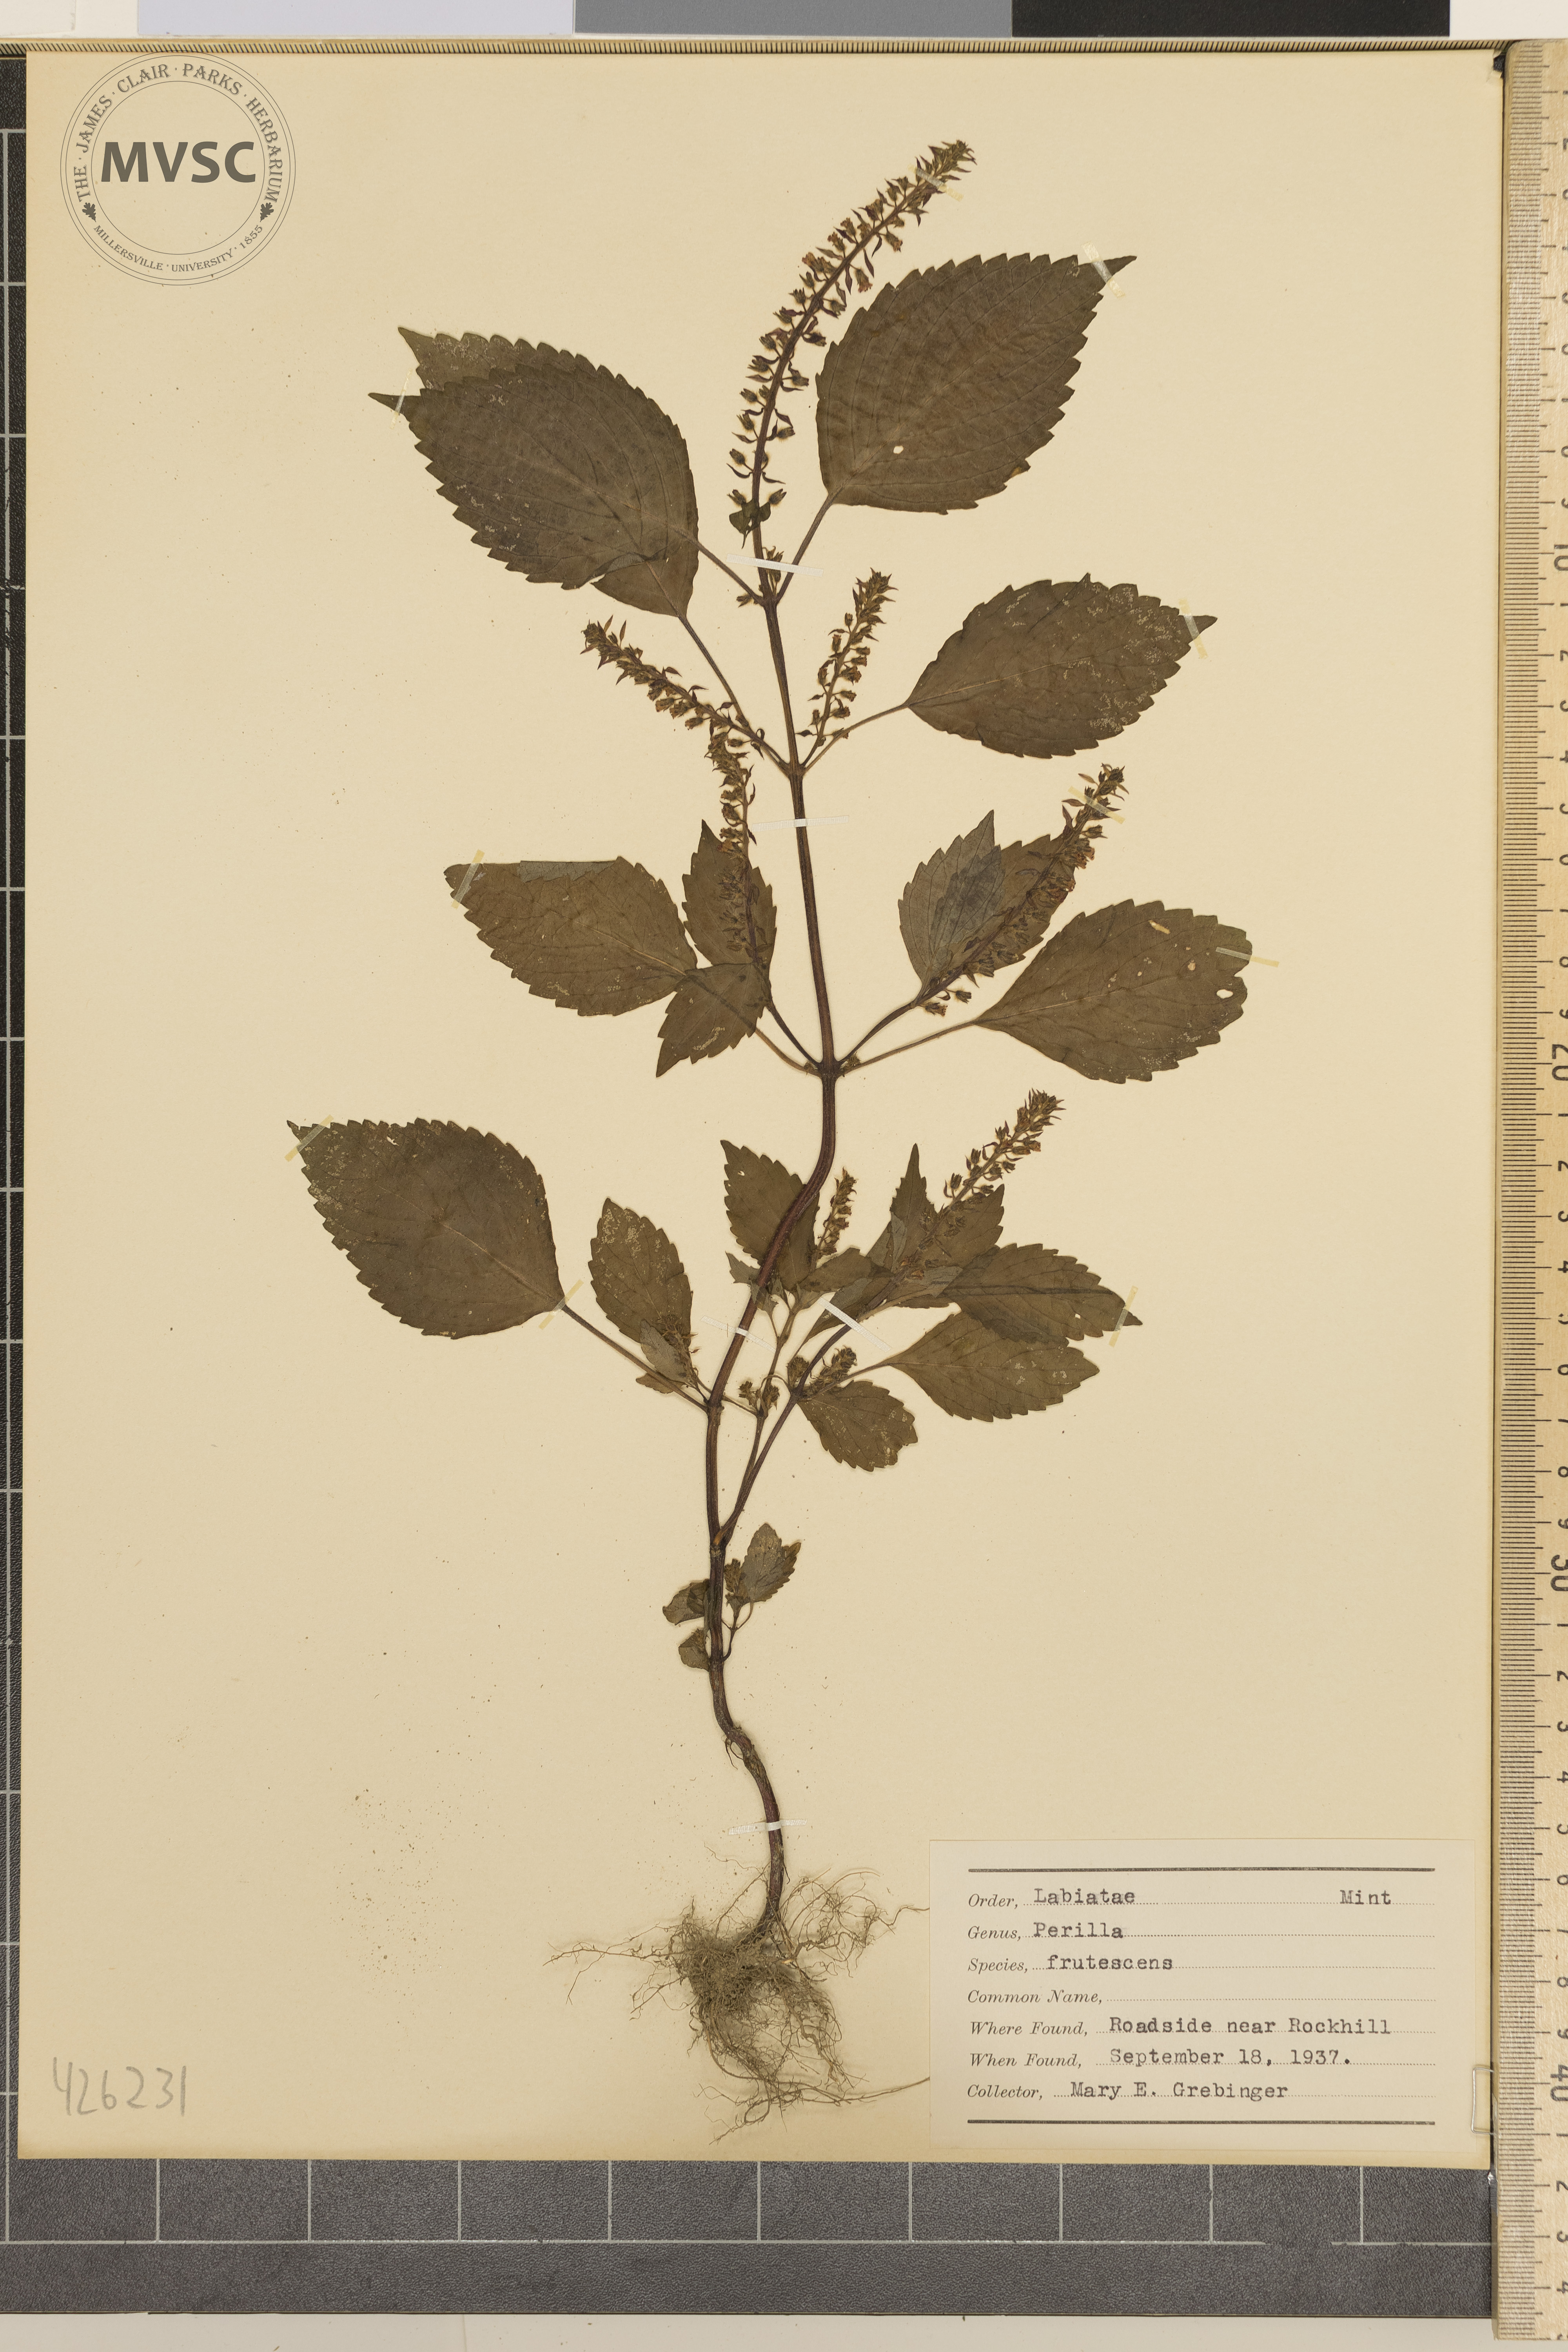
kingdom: Plantae
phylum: Tracheophyta
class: Magnoliopsida
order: Lamiales
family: Lamiaceae
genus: Perilla
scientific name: Perilla frutescens
